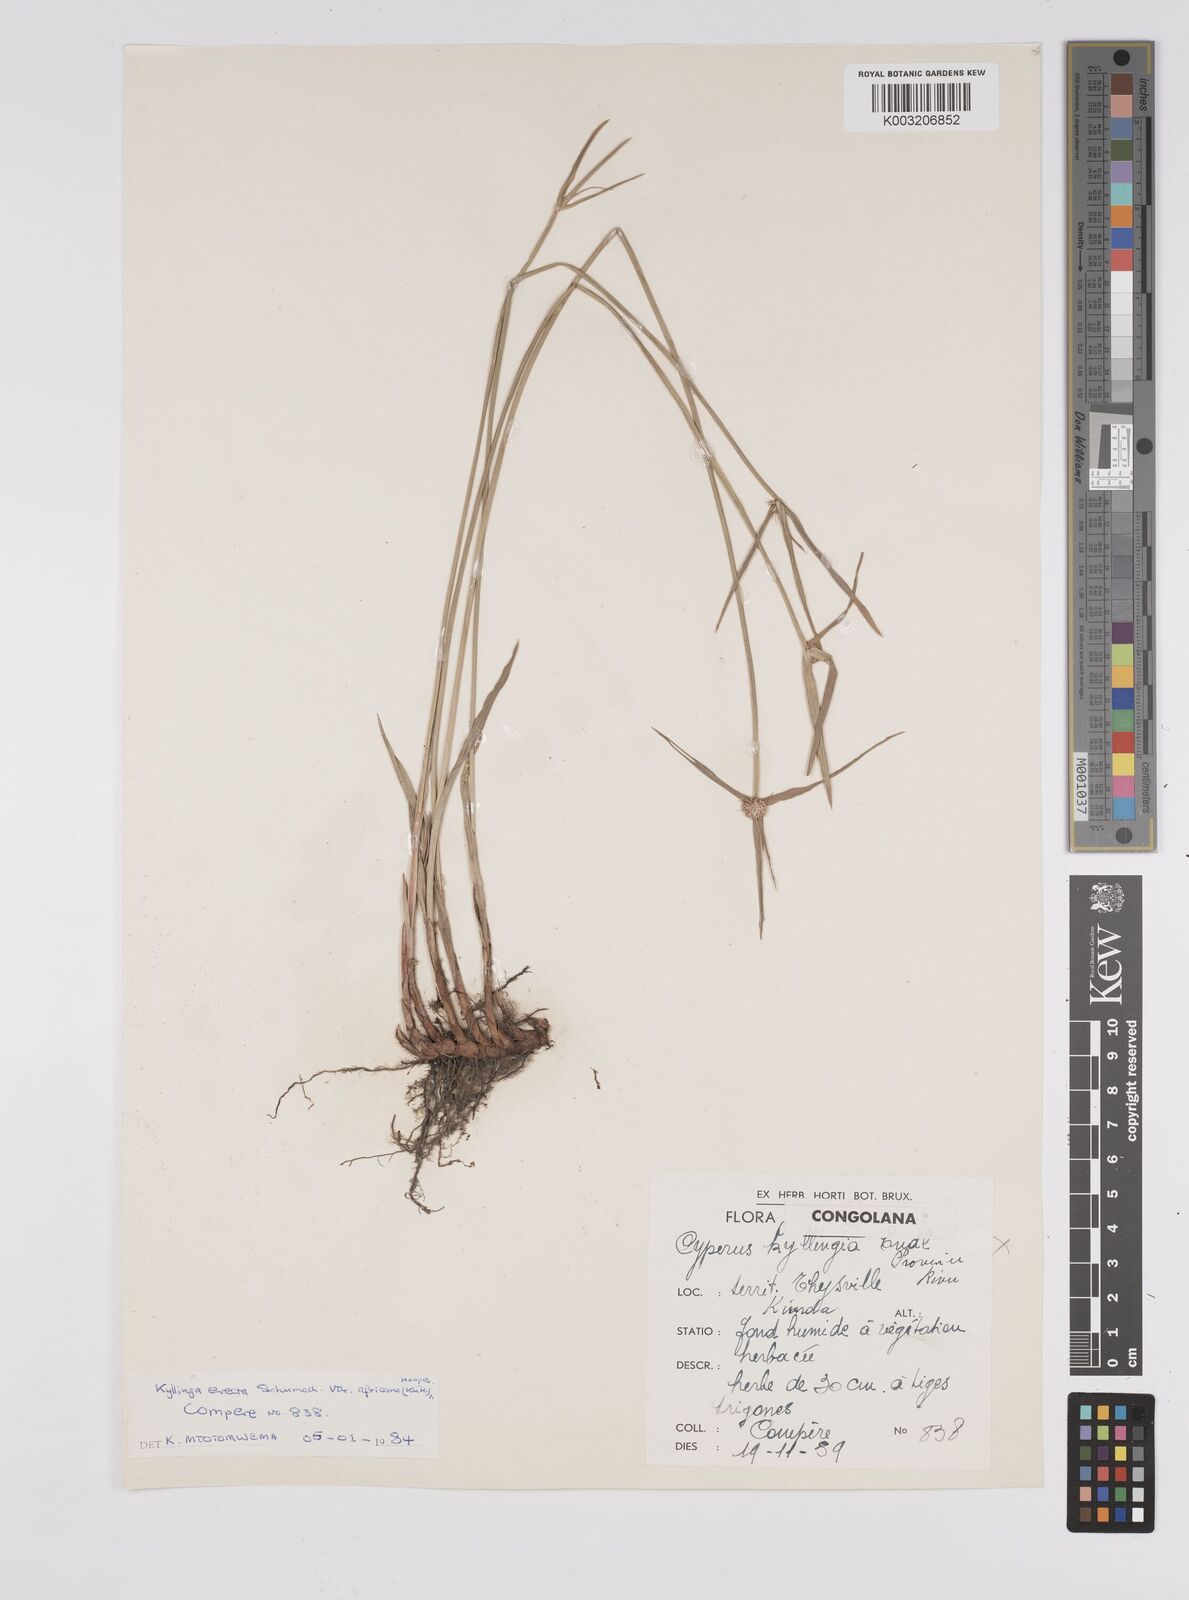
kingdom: Plantae
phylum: Tracheophyta
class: Liliopsida
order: Poales
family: Cyperaceae
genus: Cyperus
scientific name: Cyperus erectus
